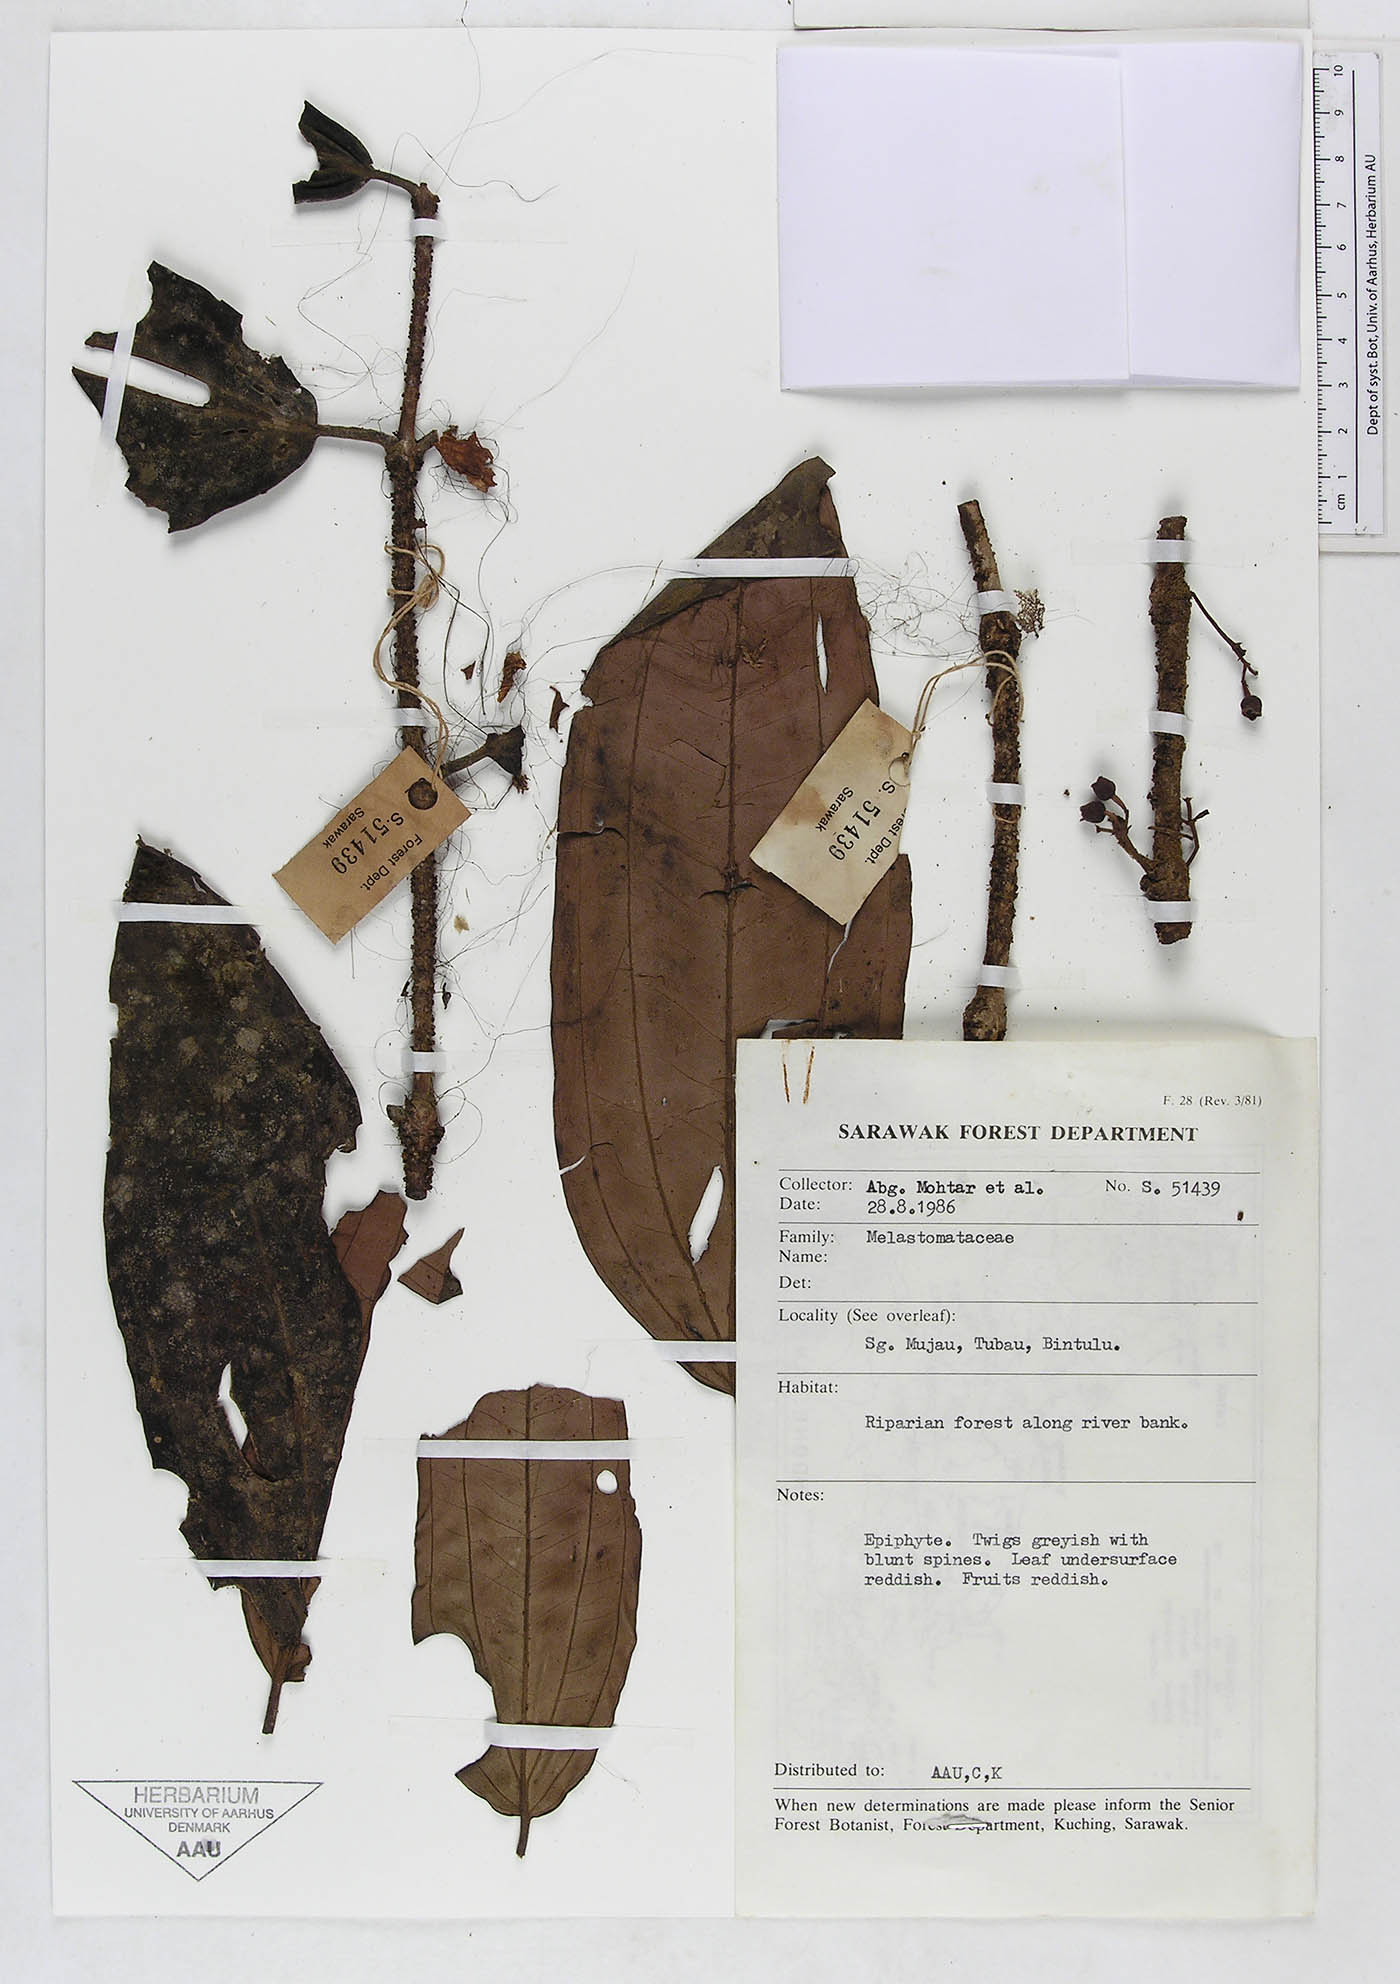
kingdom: Plantae
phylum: Tracheophyta
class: Magnoliopsida
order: Myrtales
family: Melastomataceae
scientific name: Melastomataceae
